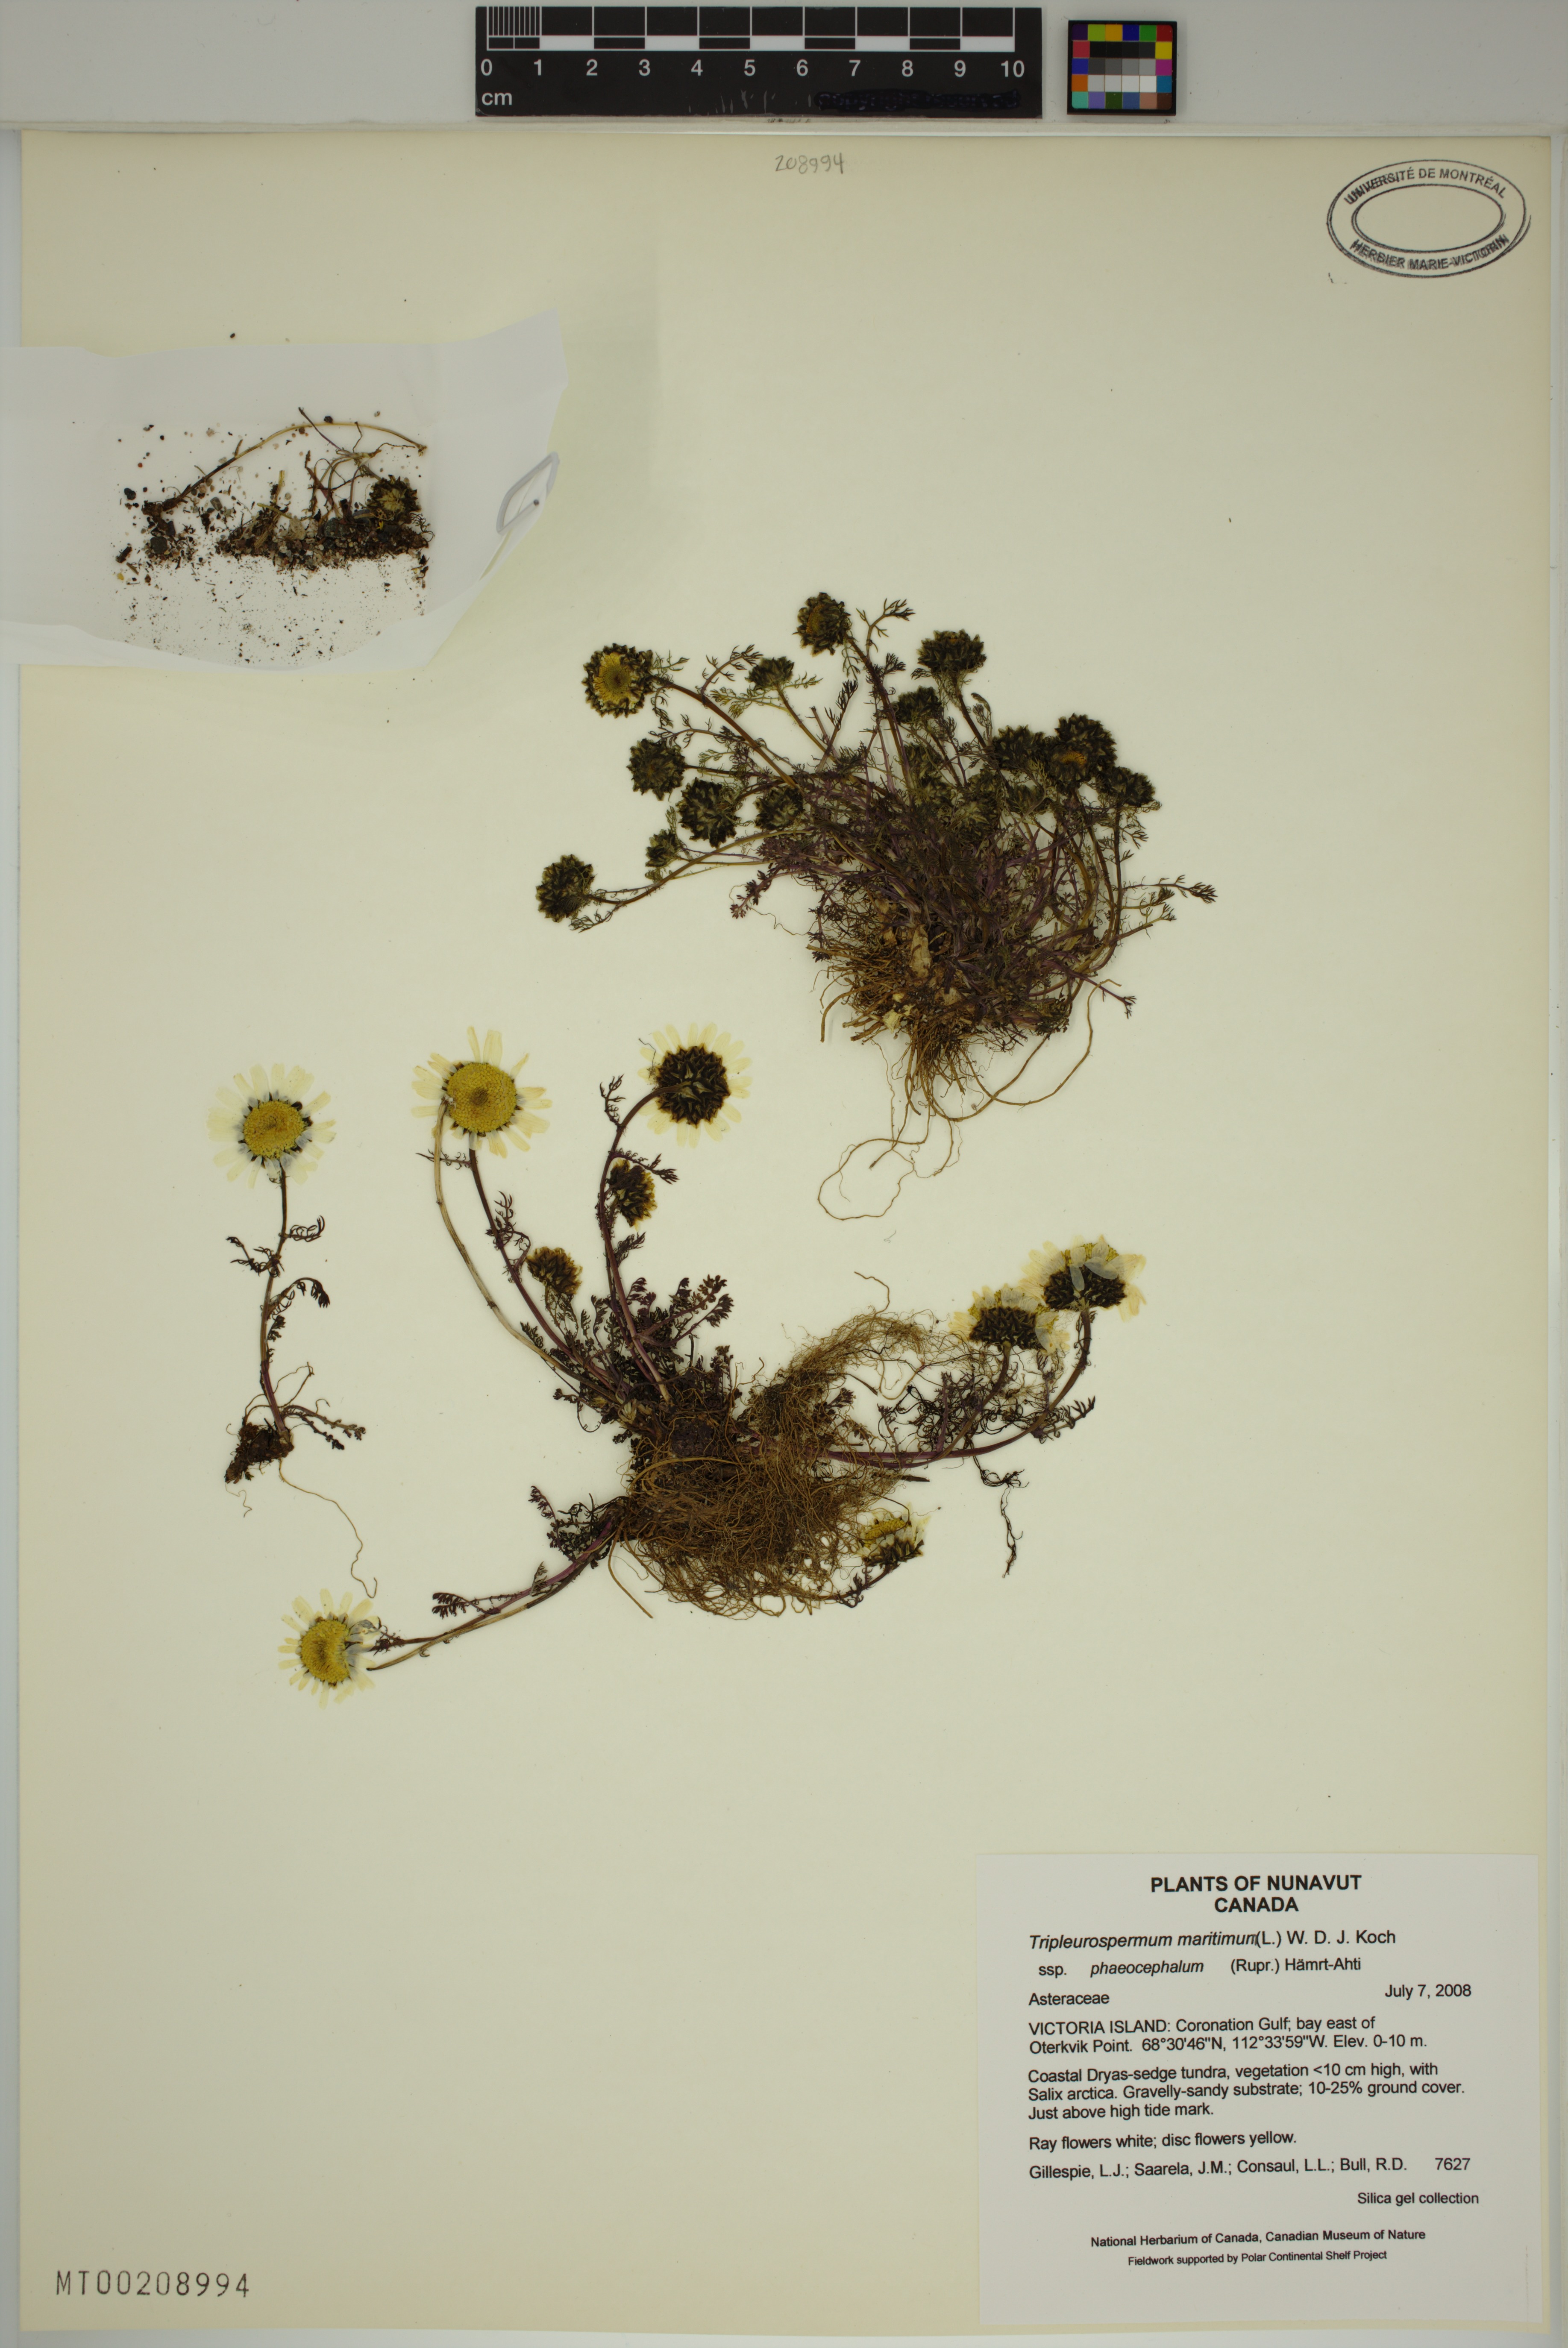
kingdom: Plantae
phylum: Tracheophyta
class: Magnoliopsida
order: Asterales
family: Asteraceae
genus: Tripleurospermum
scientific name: Tripleurospermum hookeri
